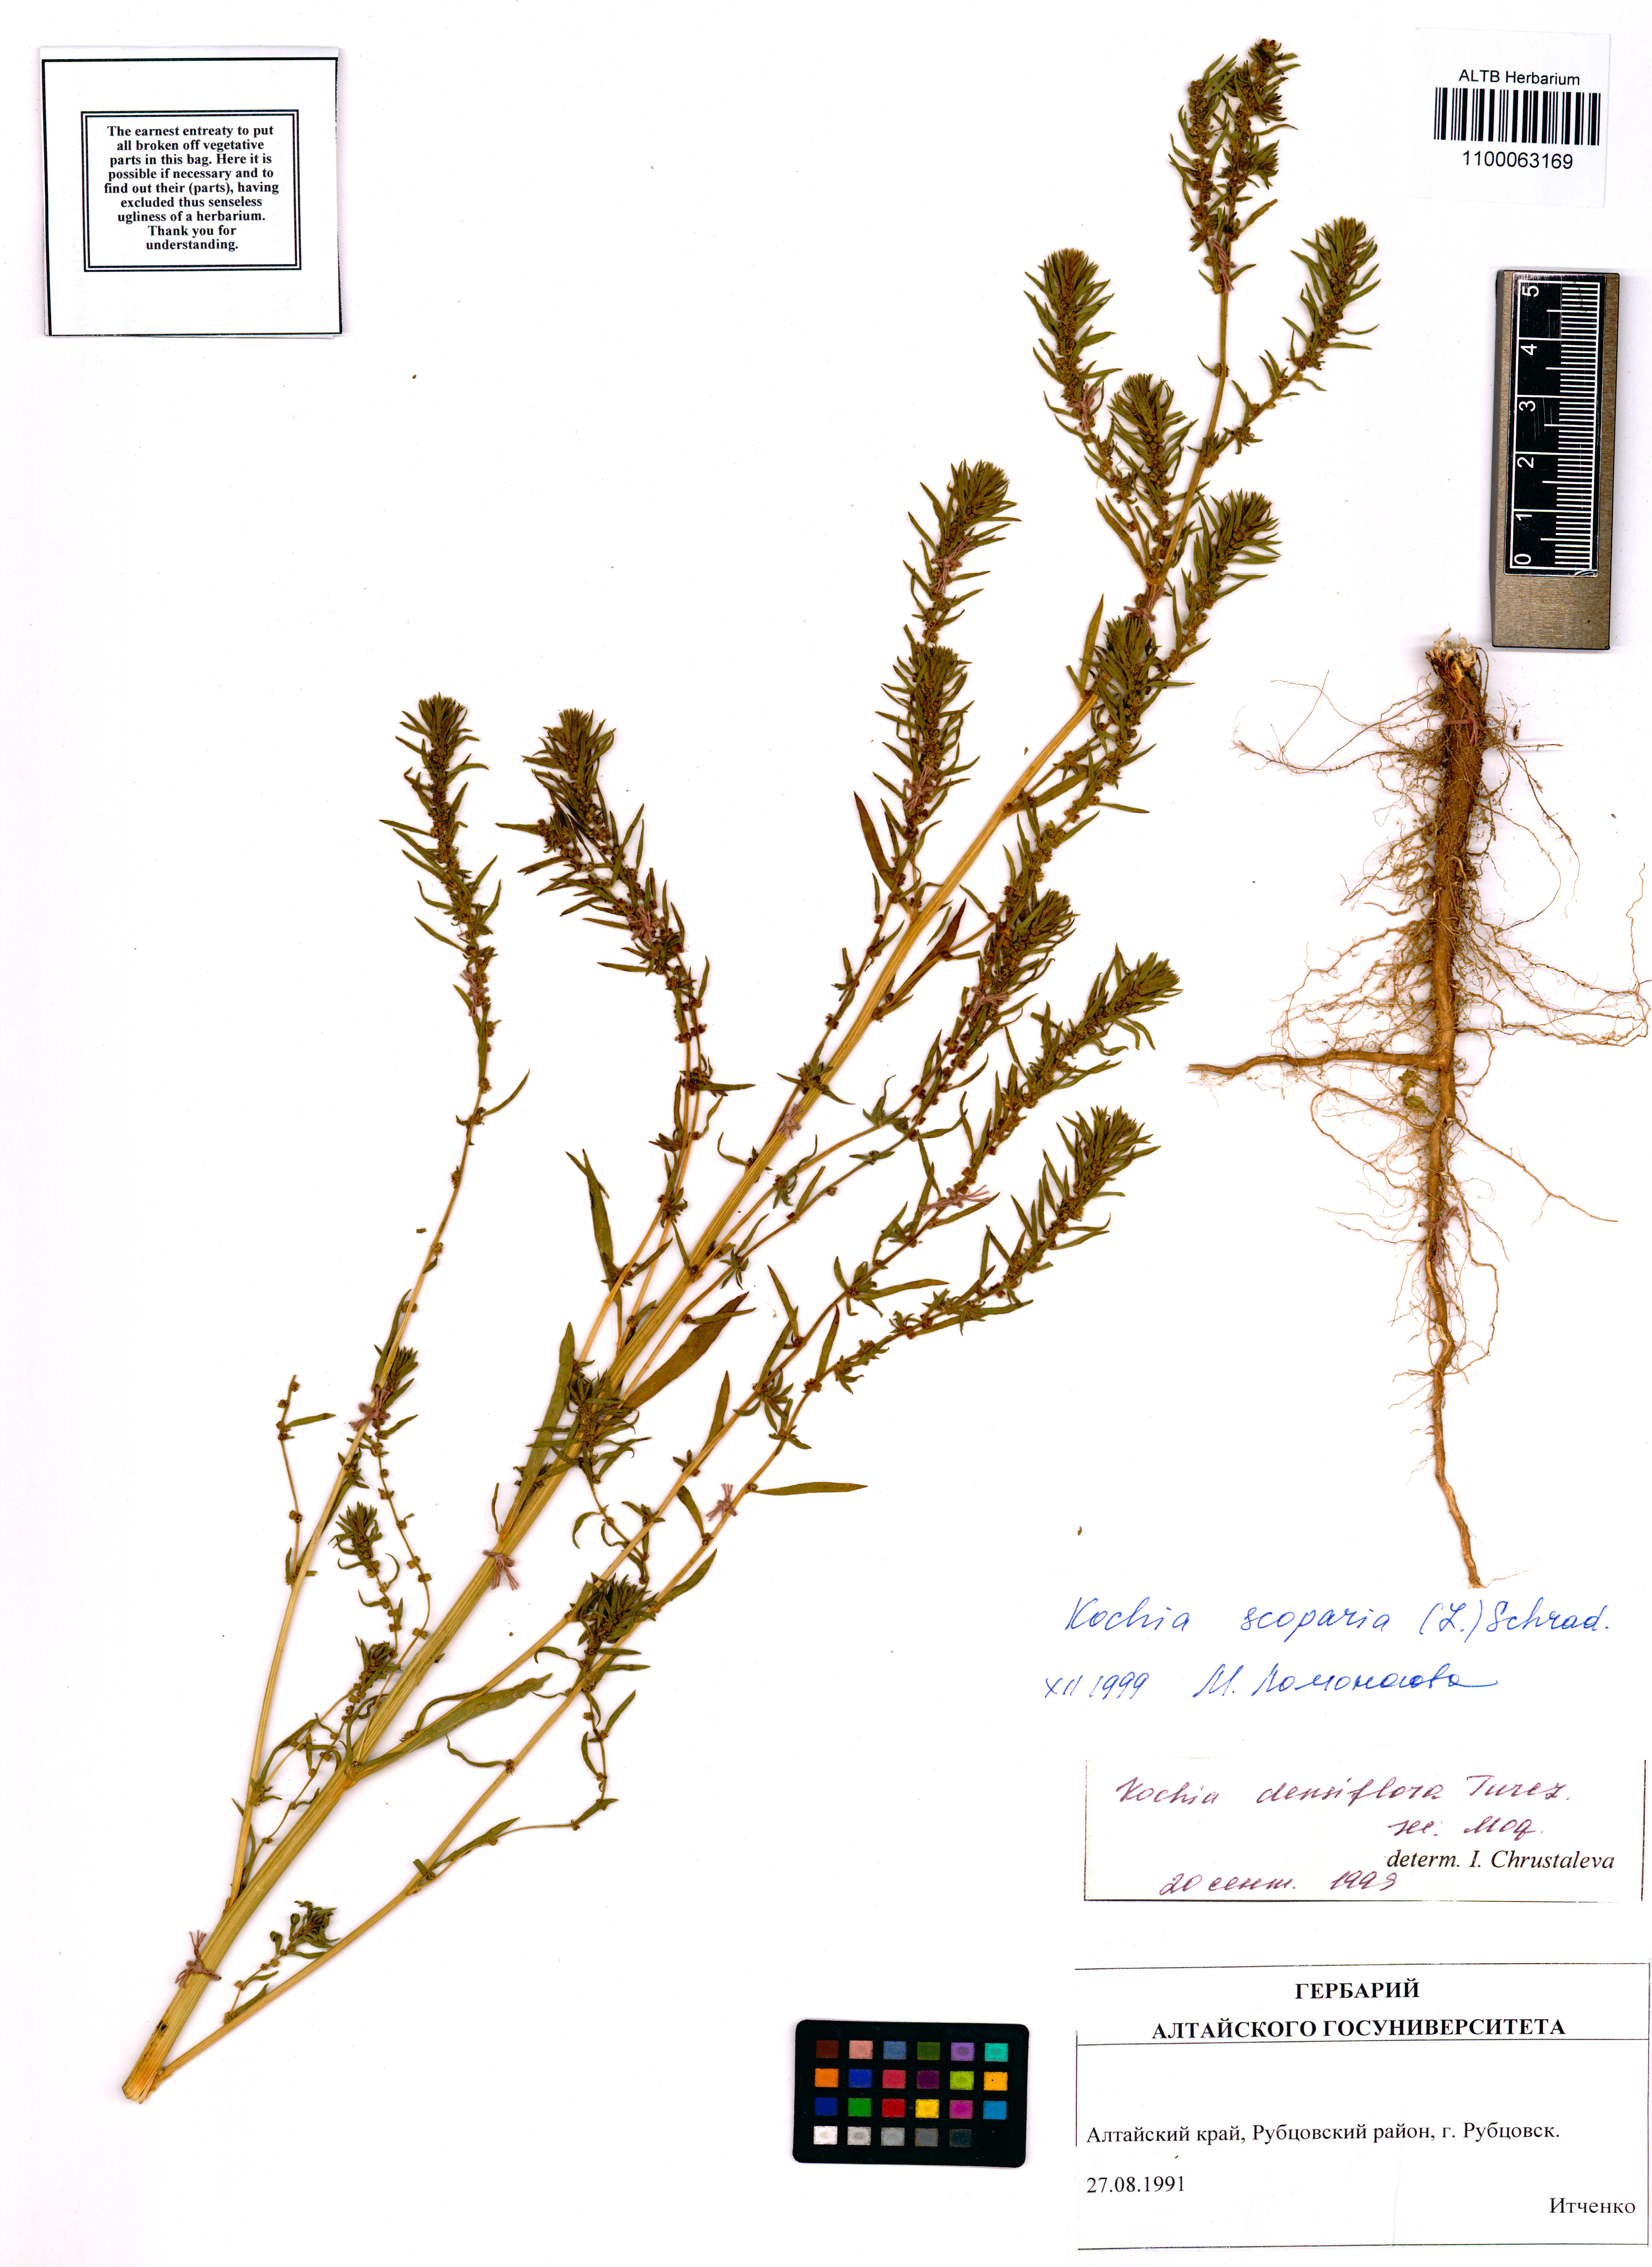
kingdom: Plantae
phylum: Tracheophyta
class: Magnoliopsida
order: Caryophyllales
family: Amaranthaceae
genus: Bassia
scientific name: Bassia scoparia
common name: Belvedere
